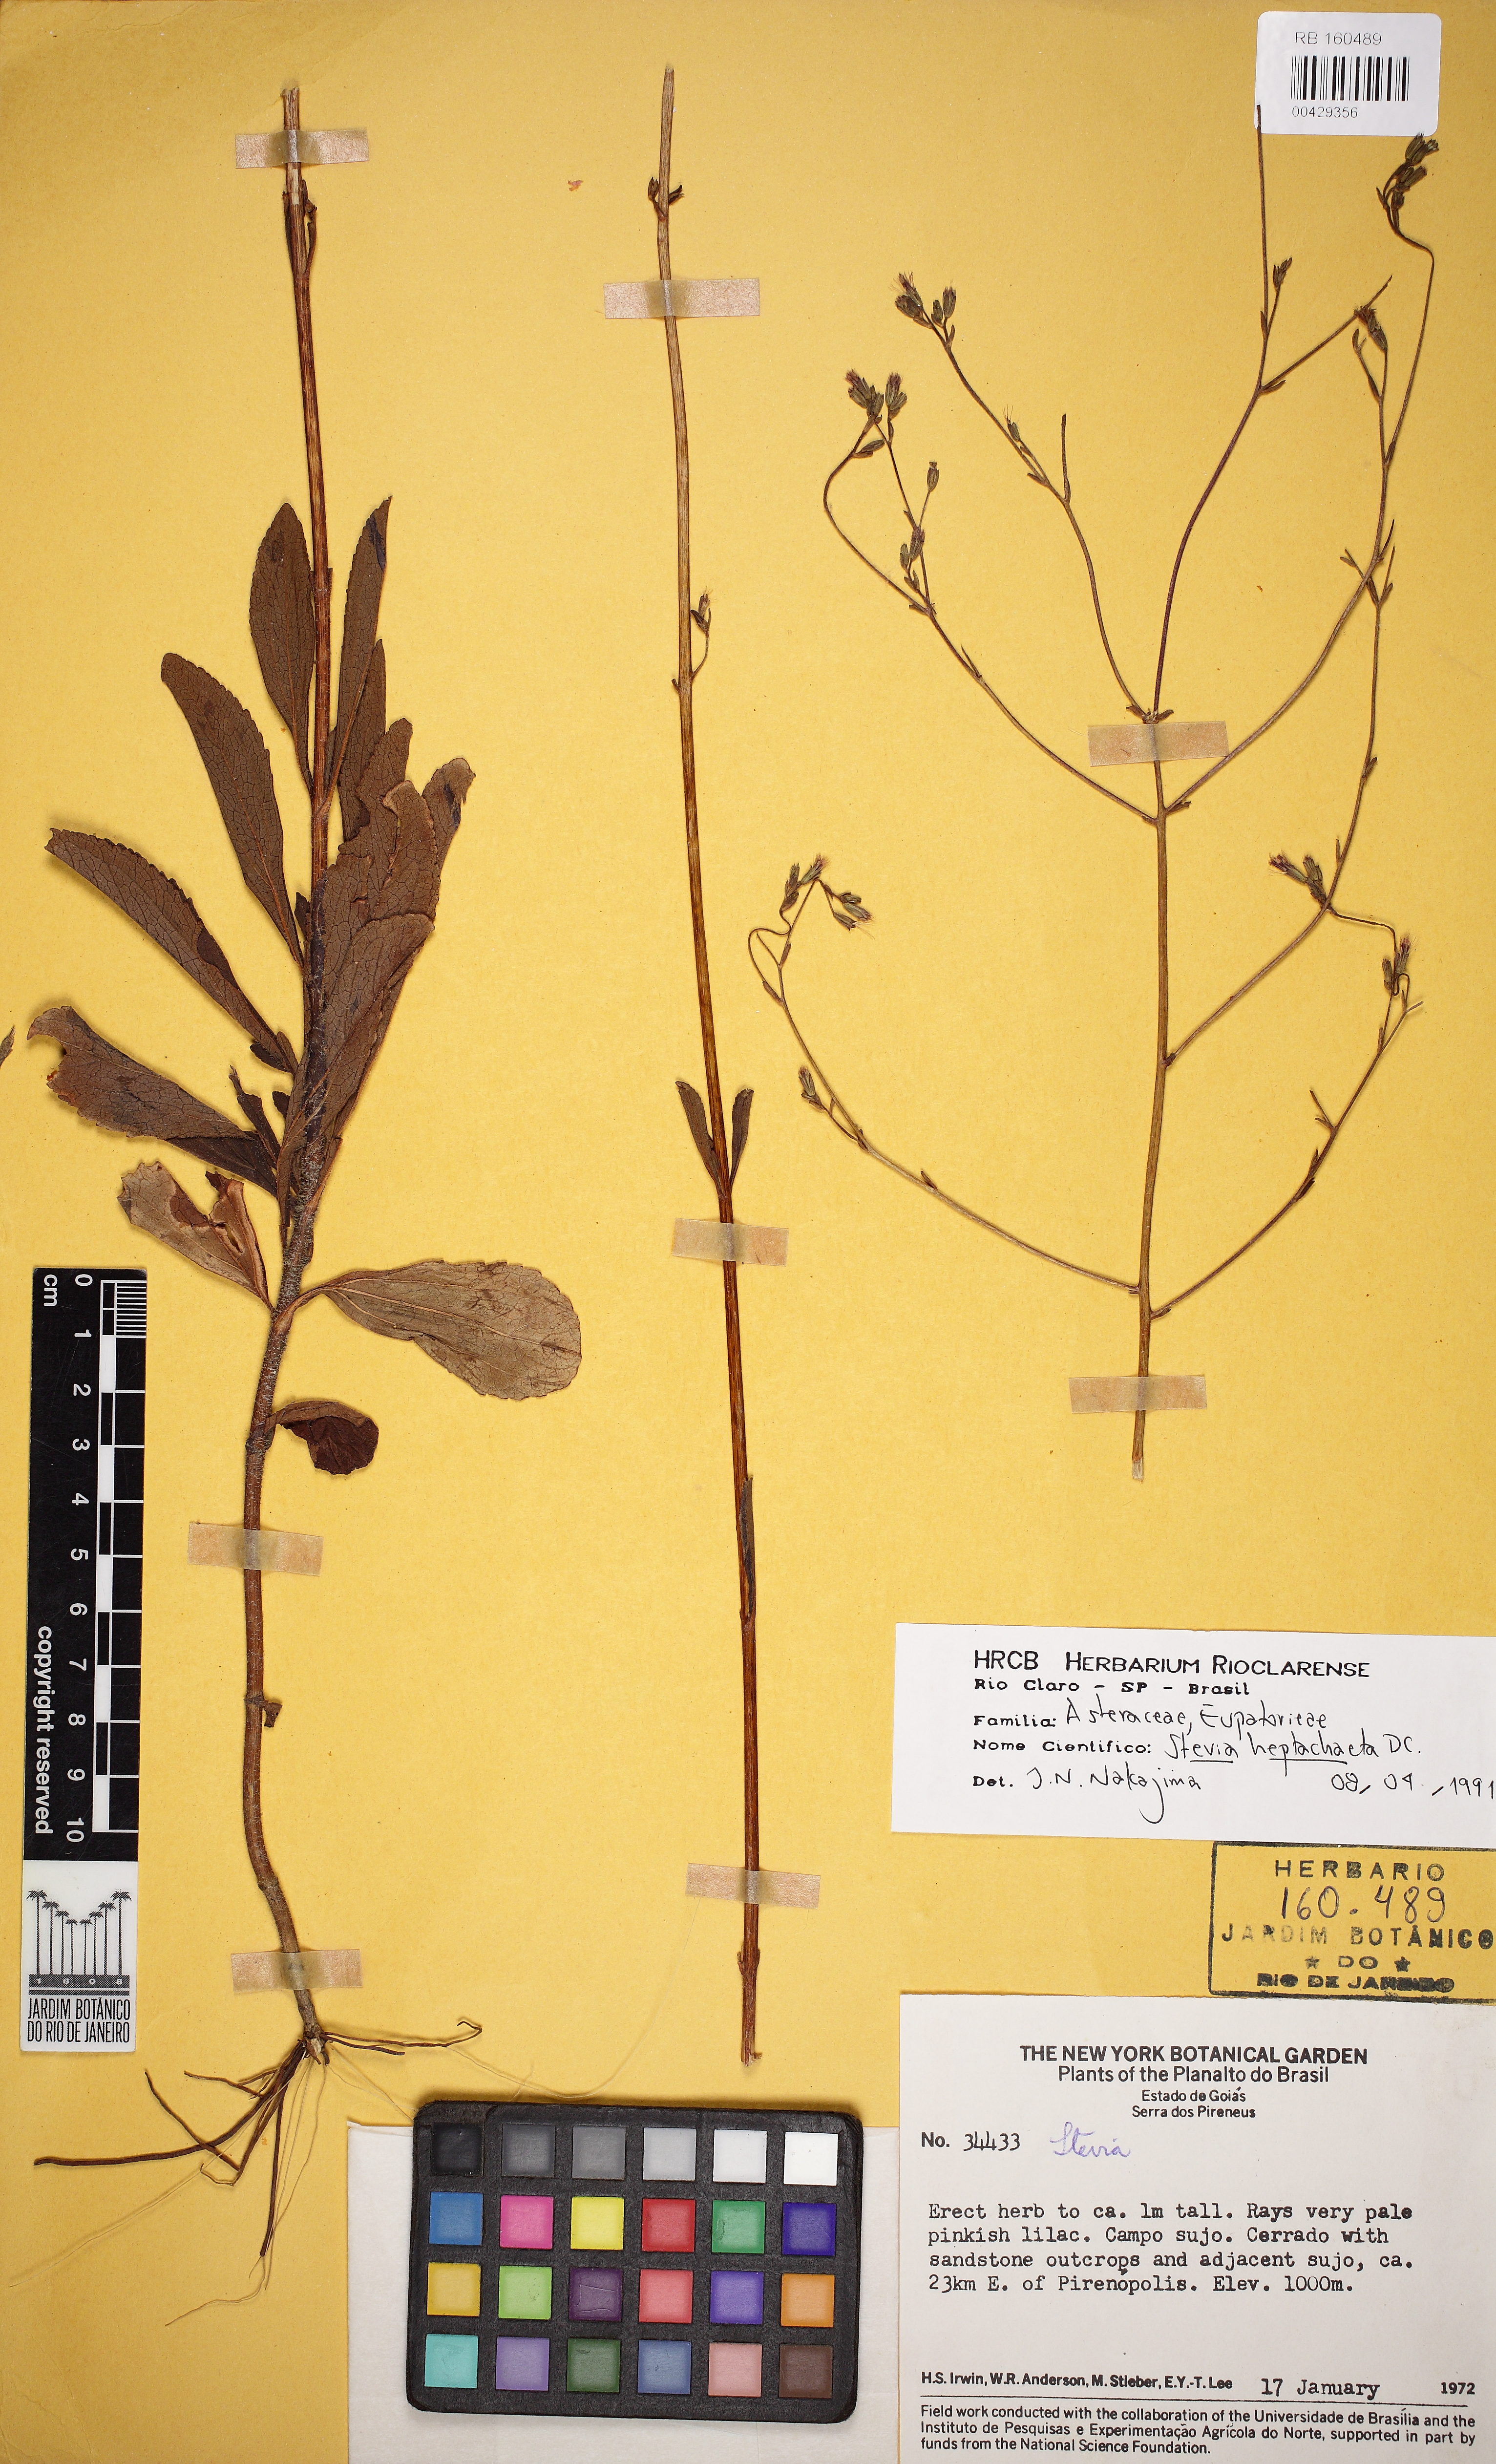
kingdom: Plantae
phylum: Tracheophyta
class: Magnoliopsida
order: Asterales
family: Asteraceae
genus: Stevia
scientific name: Stevia heptachaeta
